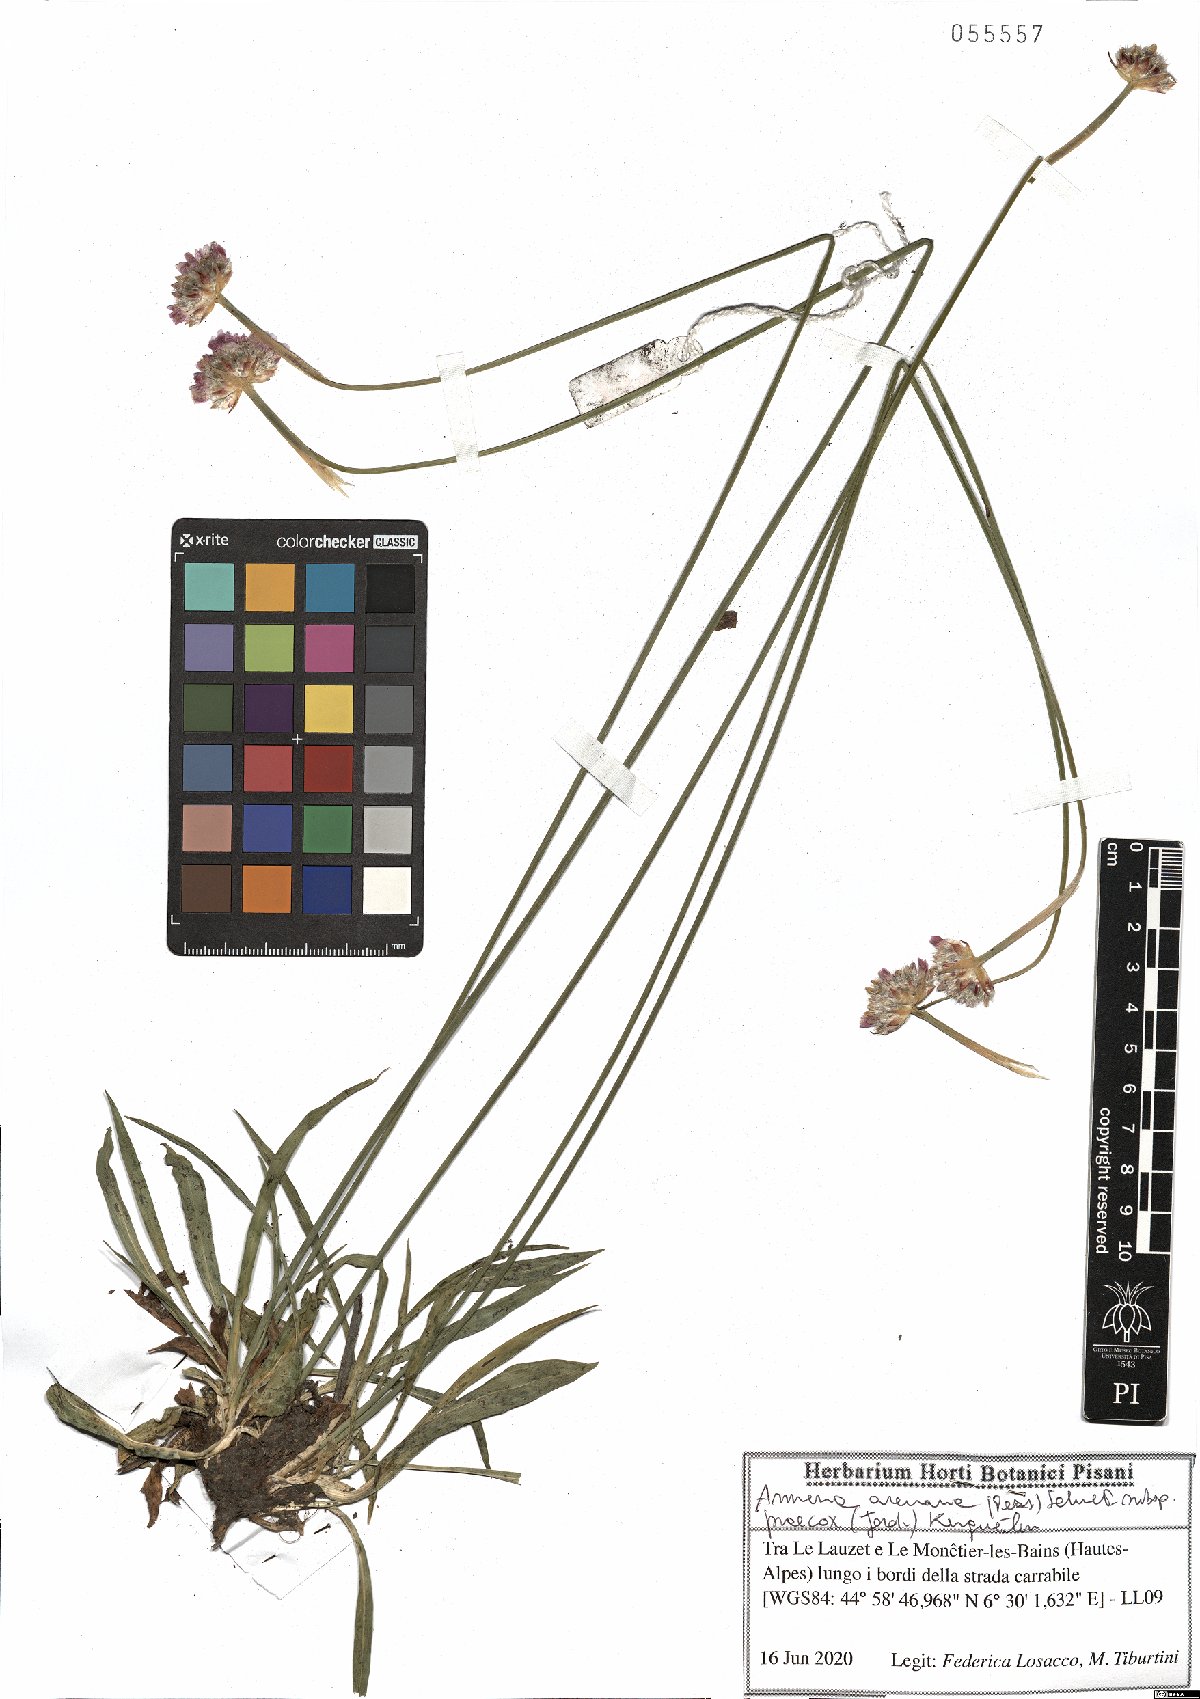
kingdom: Plantae
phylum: Tracheophyta
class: Magnoliopsida
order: Caryophyllales
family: Plumbaginaceae
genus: Armeria
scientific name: Armeria arenaria
